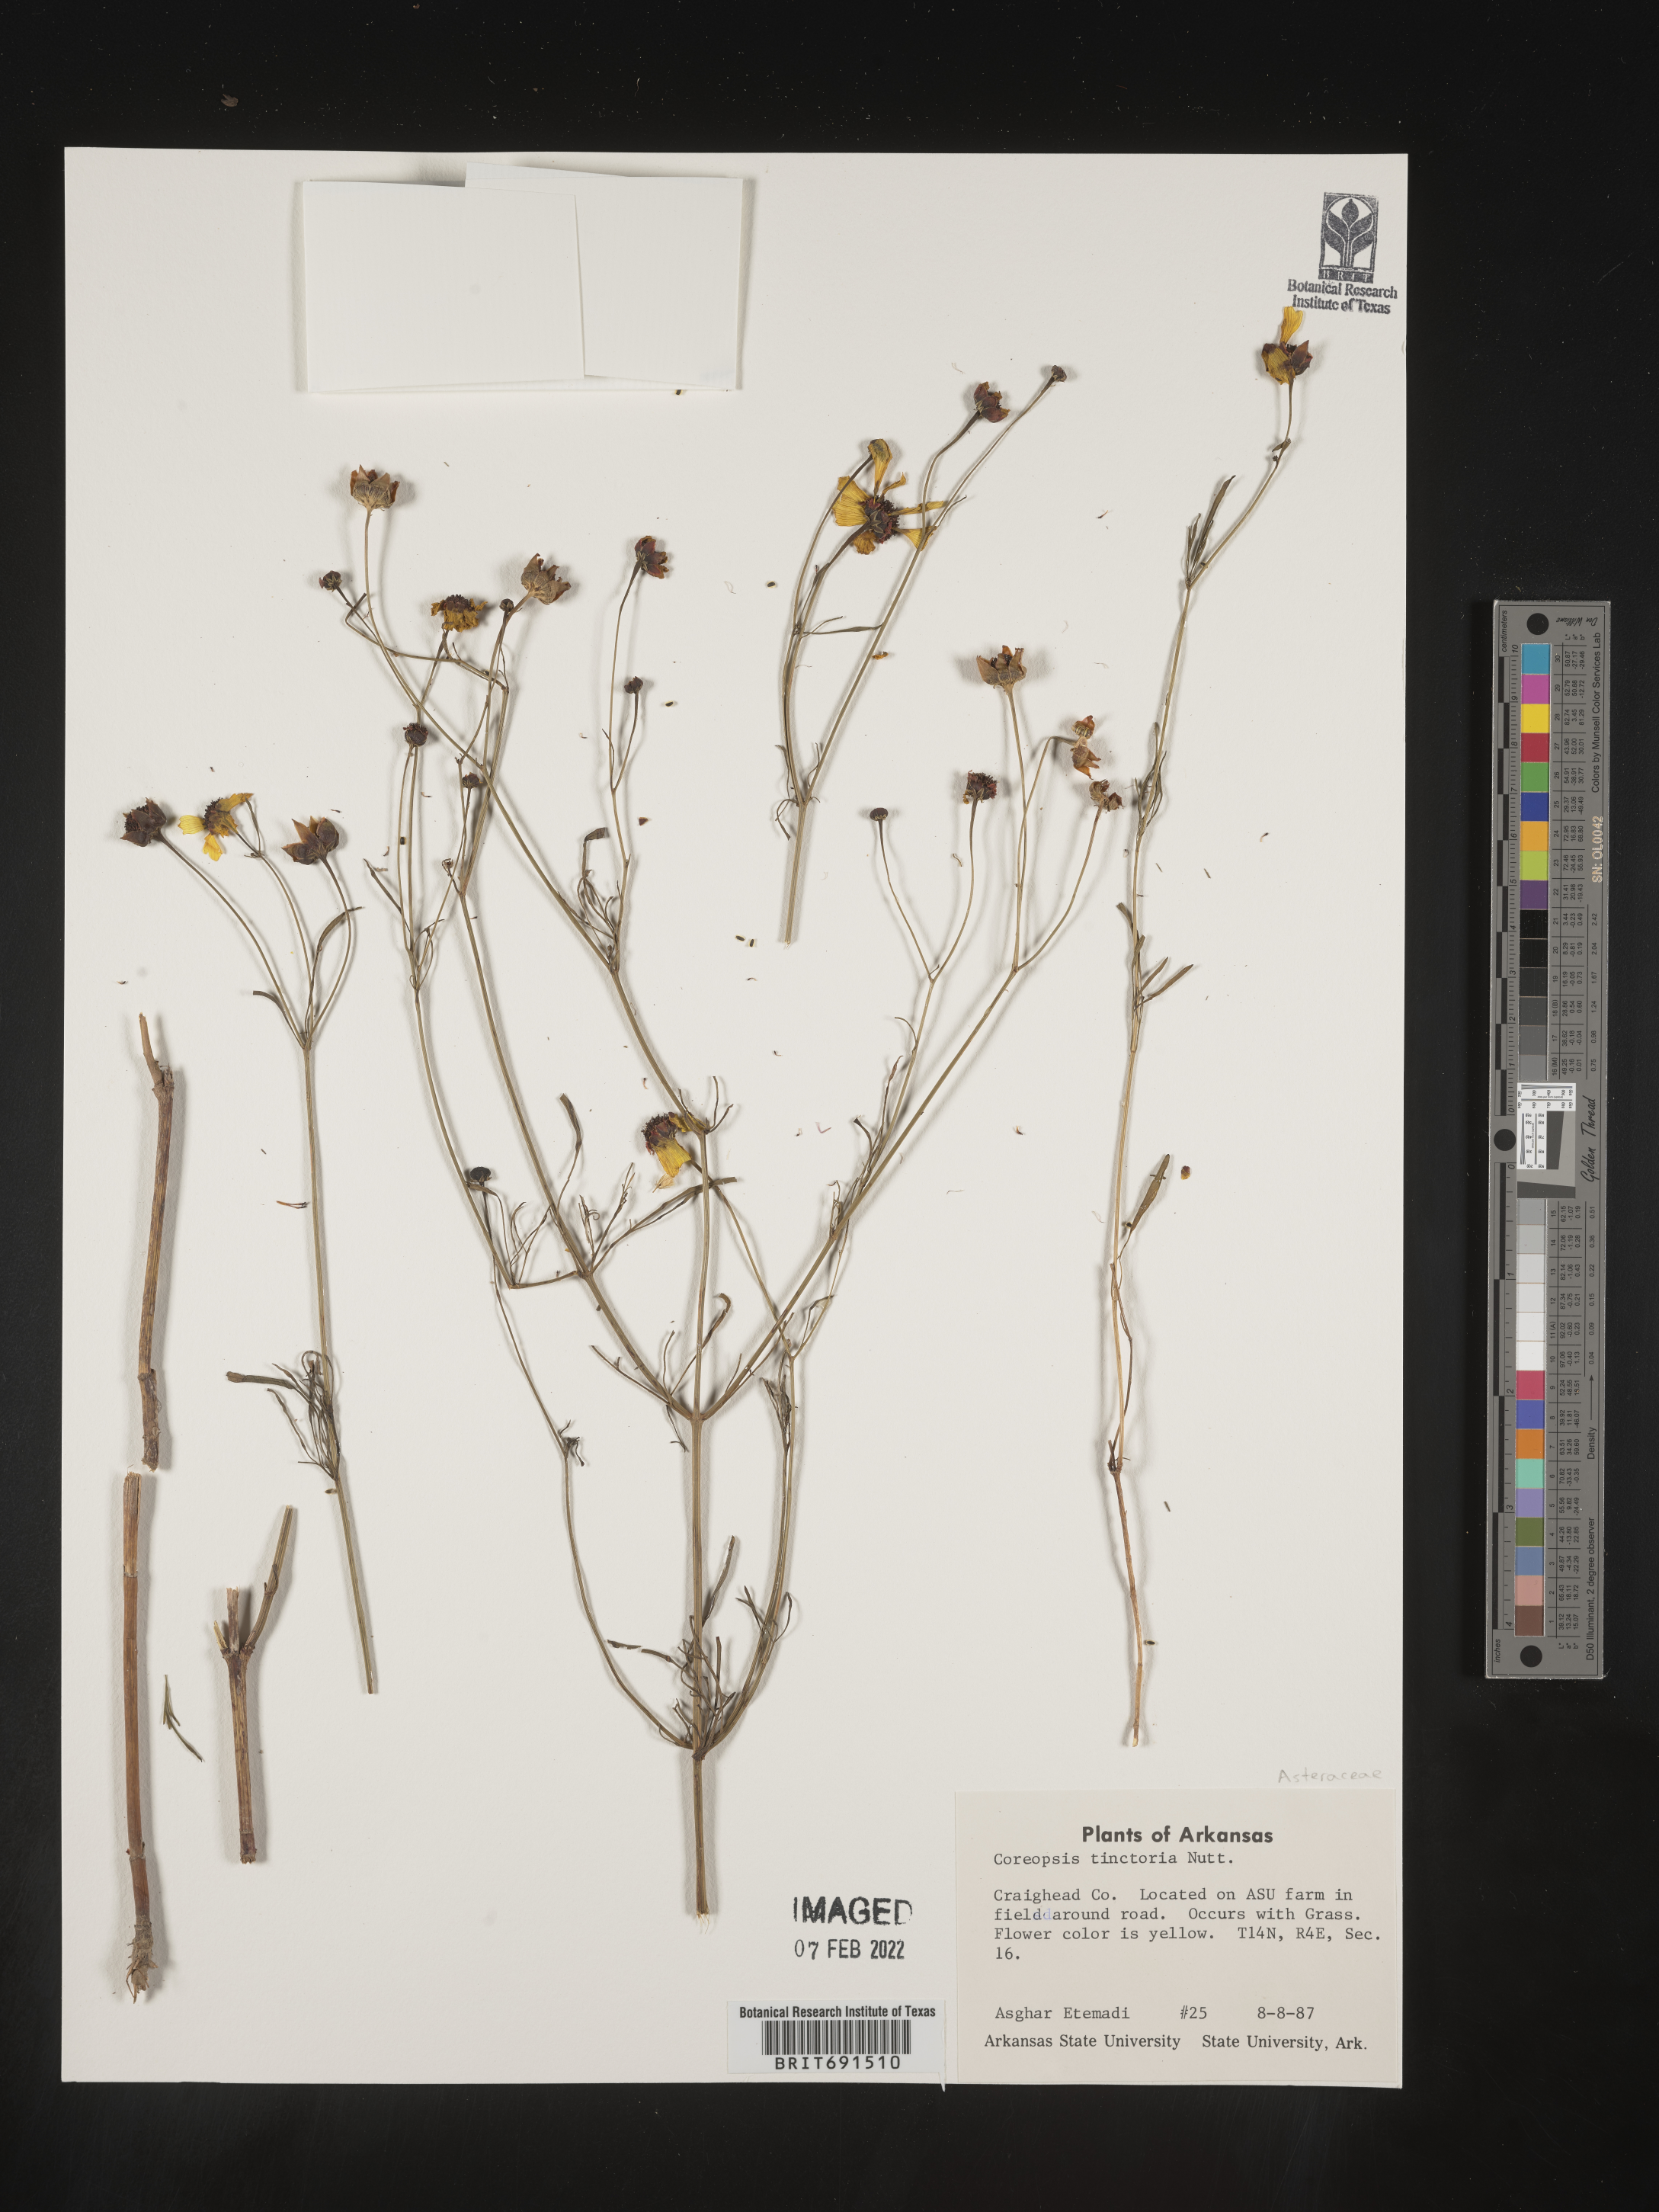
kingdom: Plantae
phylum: Tracheophyta
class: Magnoliopsida
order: Asterales
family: Asteraceae
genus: Coreopsis
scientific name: Coreopsis tinctoria
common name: Garden tickseed
